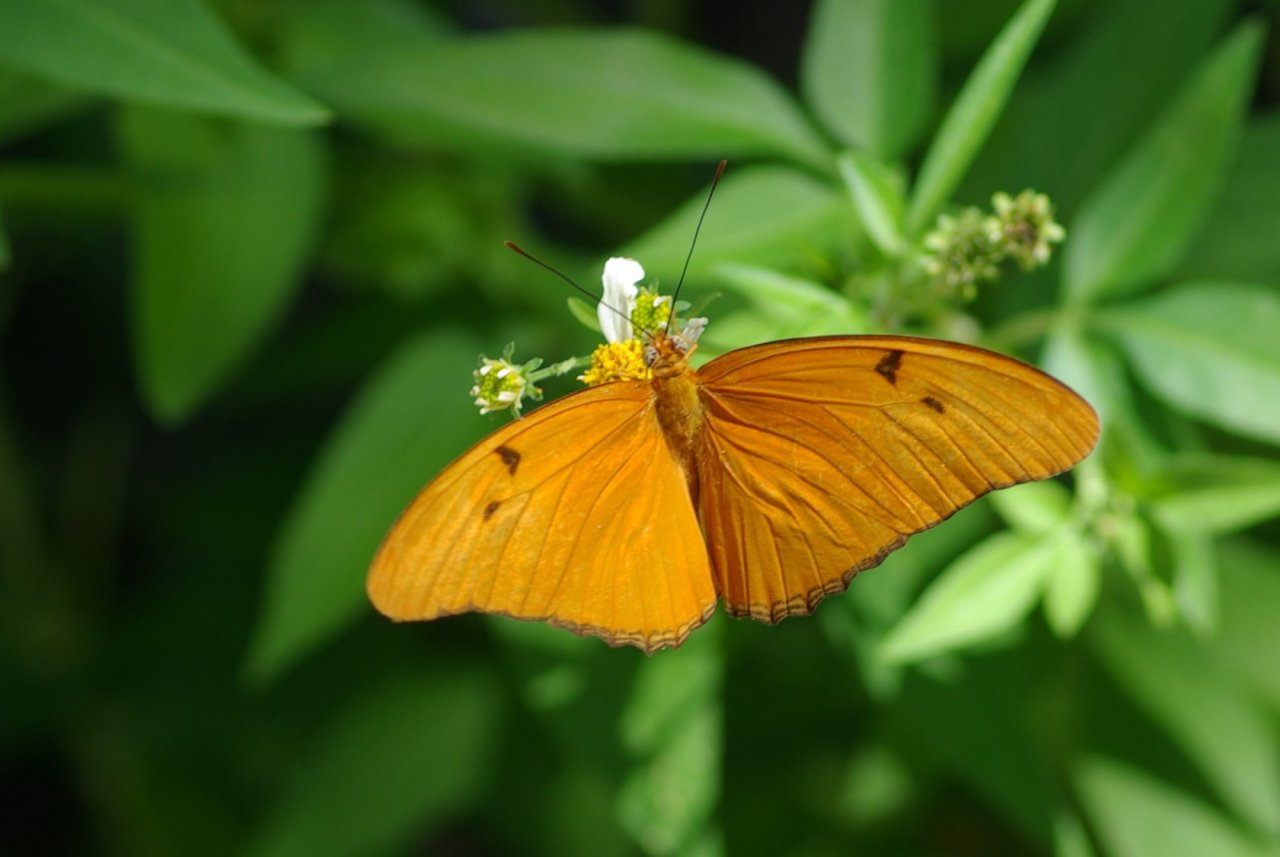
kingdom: Animalia
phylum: Arthropoda
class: Insecta
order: Lepidoptera
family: Nymphalidae
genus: Dryas
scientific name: Dryas iulia
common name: Julia
